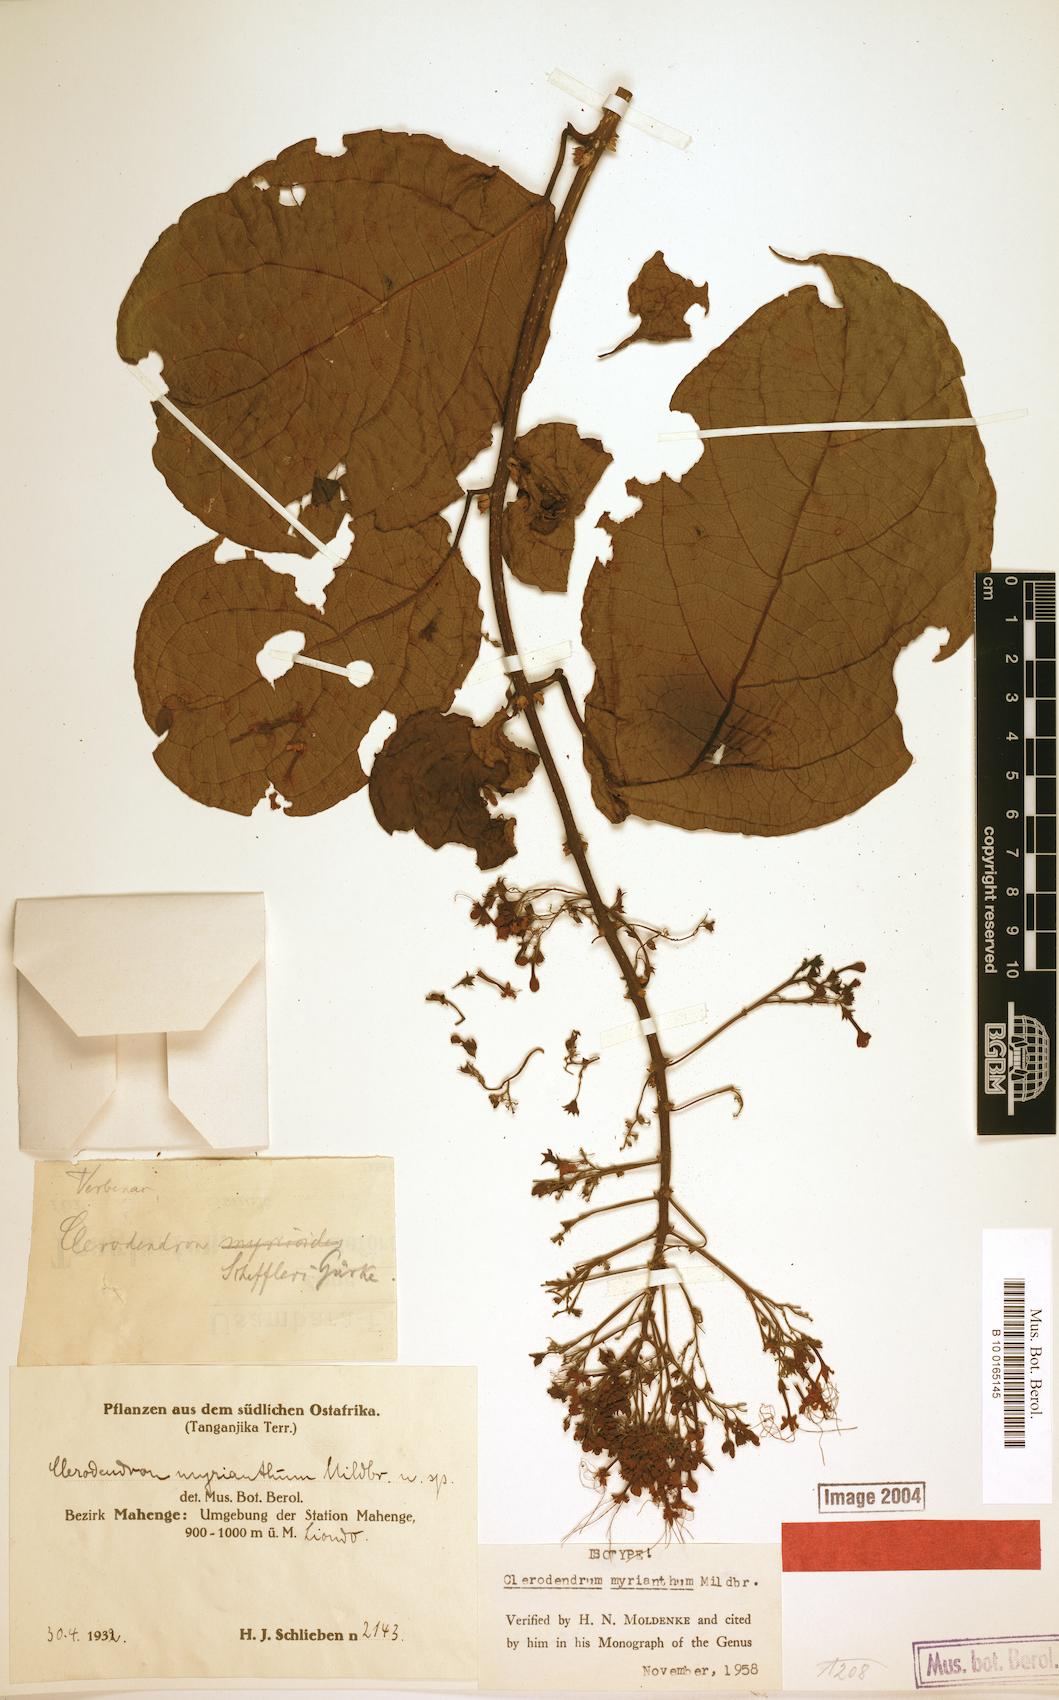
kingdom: Plantae
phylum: Tracheophyta
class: Magnoliopsida
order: Lamiales
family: Lamiaceae
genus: Clerodendrum
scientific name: Clerodendrum myrianthum
